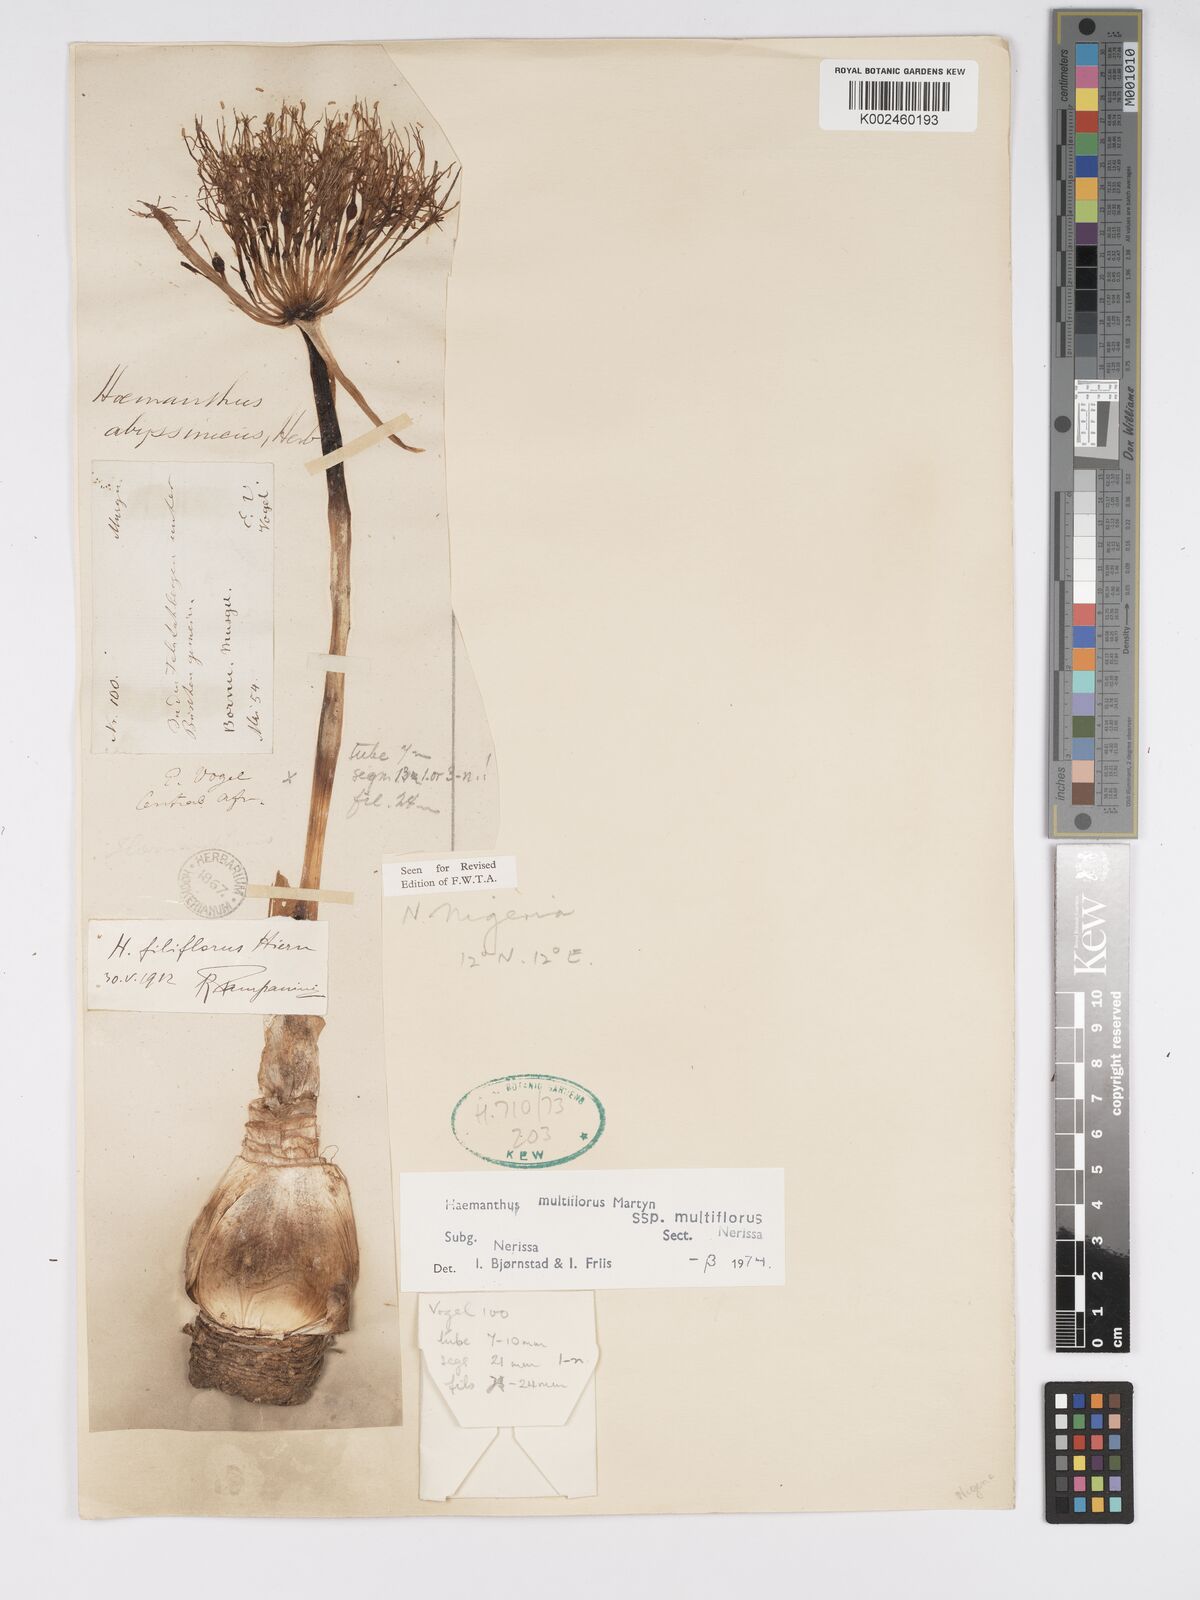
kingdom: Plantae
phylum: Tracheophyta
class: Liliopsida
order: Asparagales
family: Amaryllidaceae
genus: Scadoxus
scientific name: Scadoxus multiflorus
